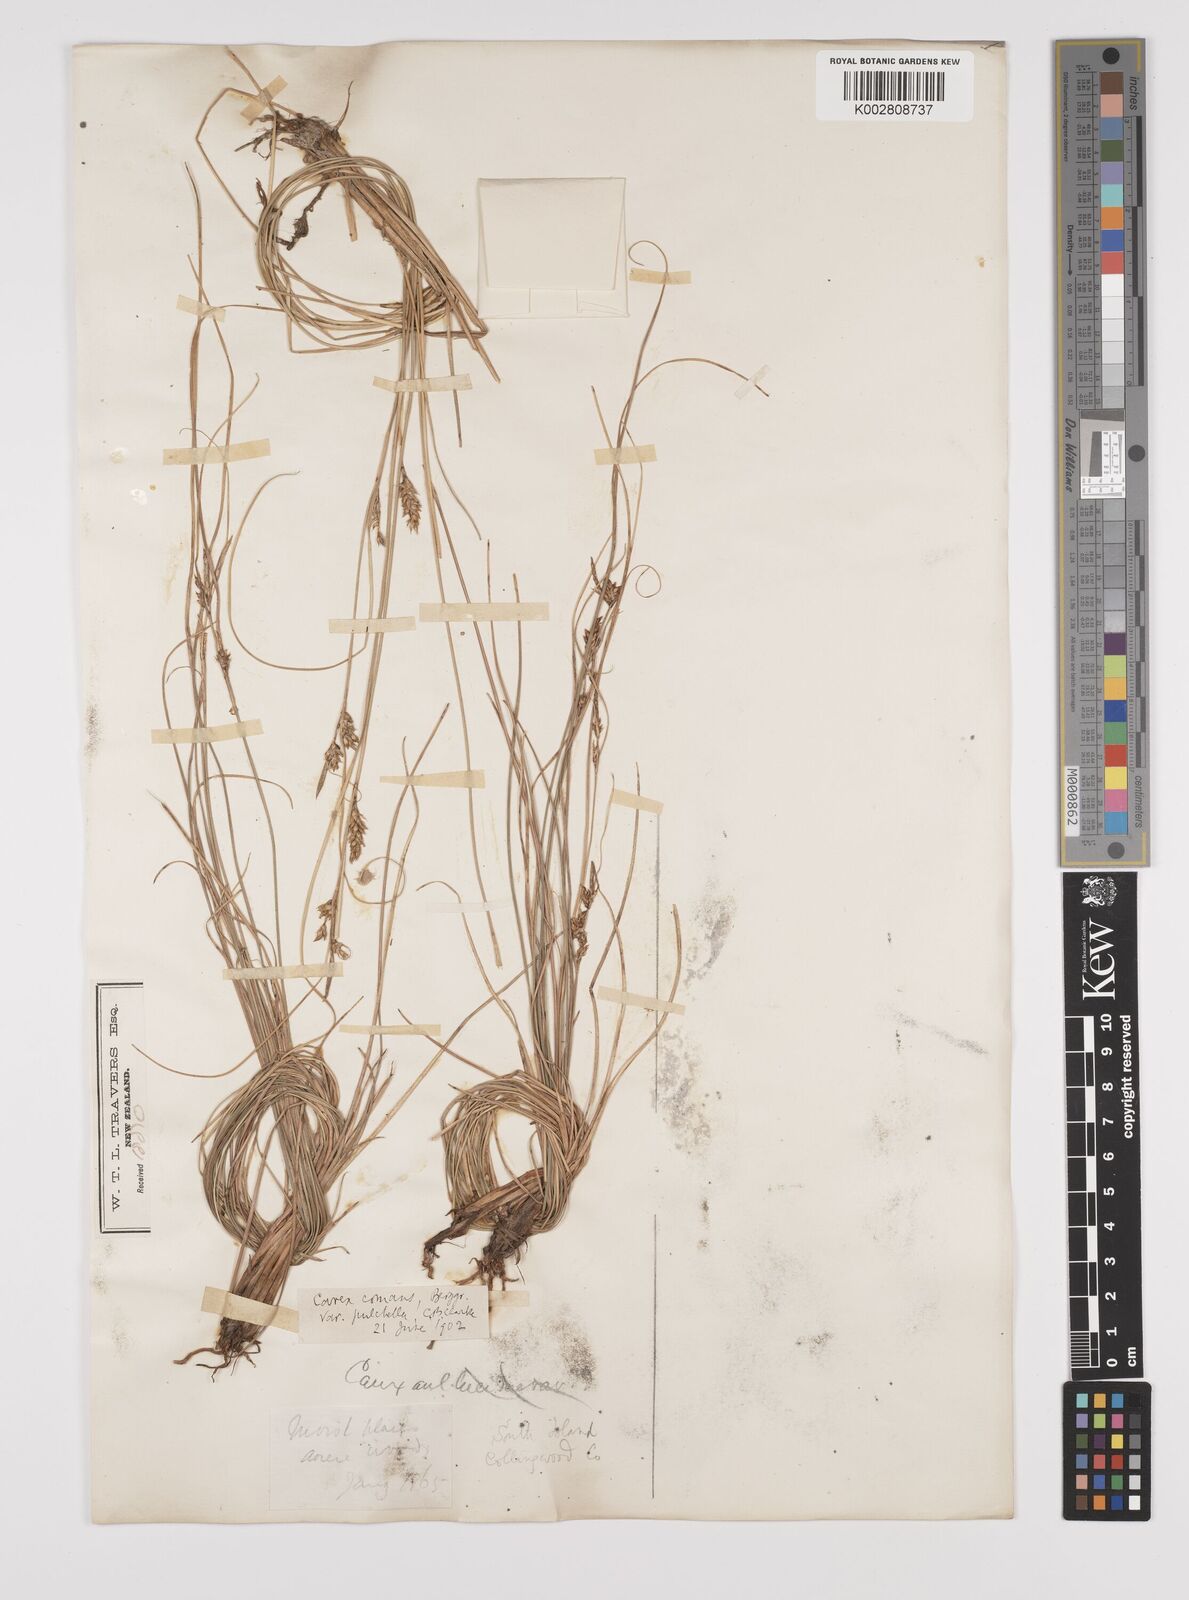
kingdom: Plantae
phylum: Tracheophyta
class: Liliopsida
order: Poales
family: Cyperaceae
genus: Carex
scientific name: Carex comans
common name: Longwood tussock
